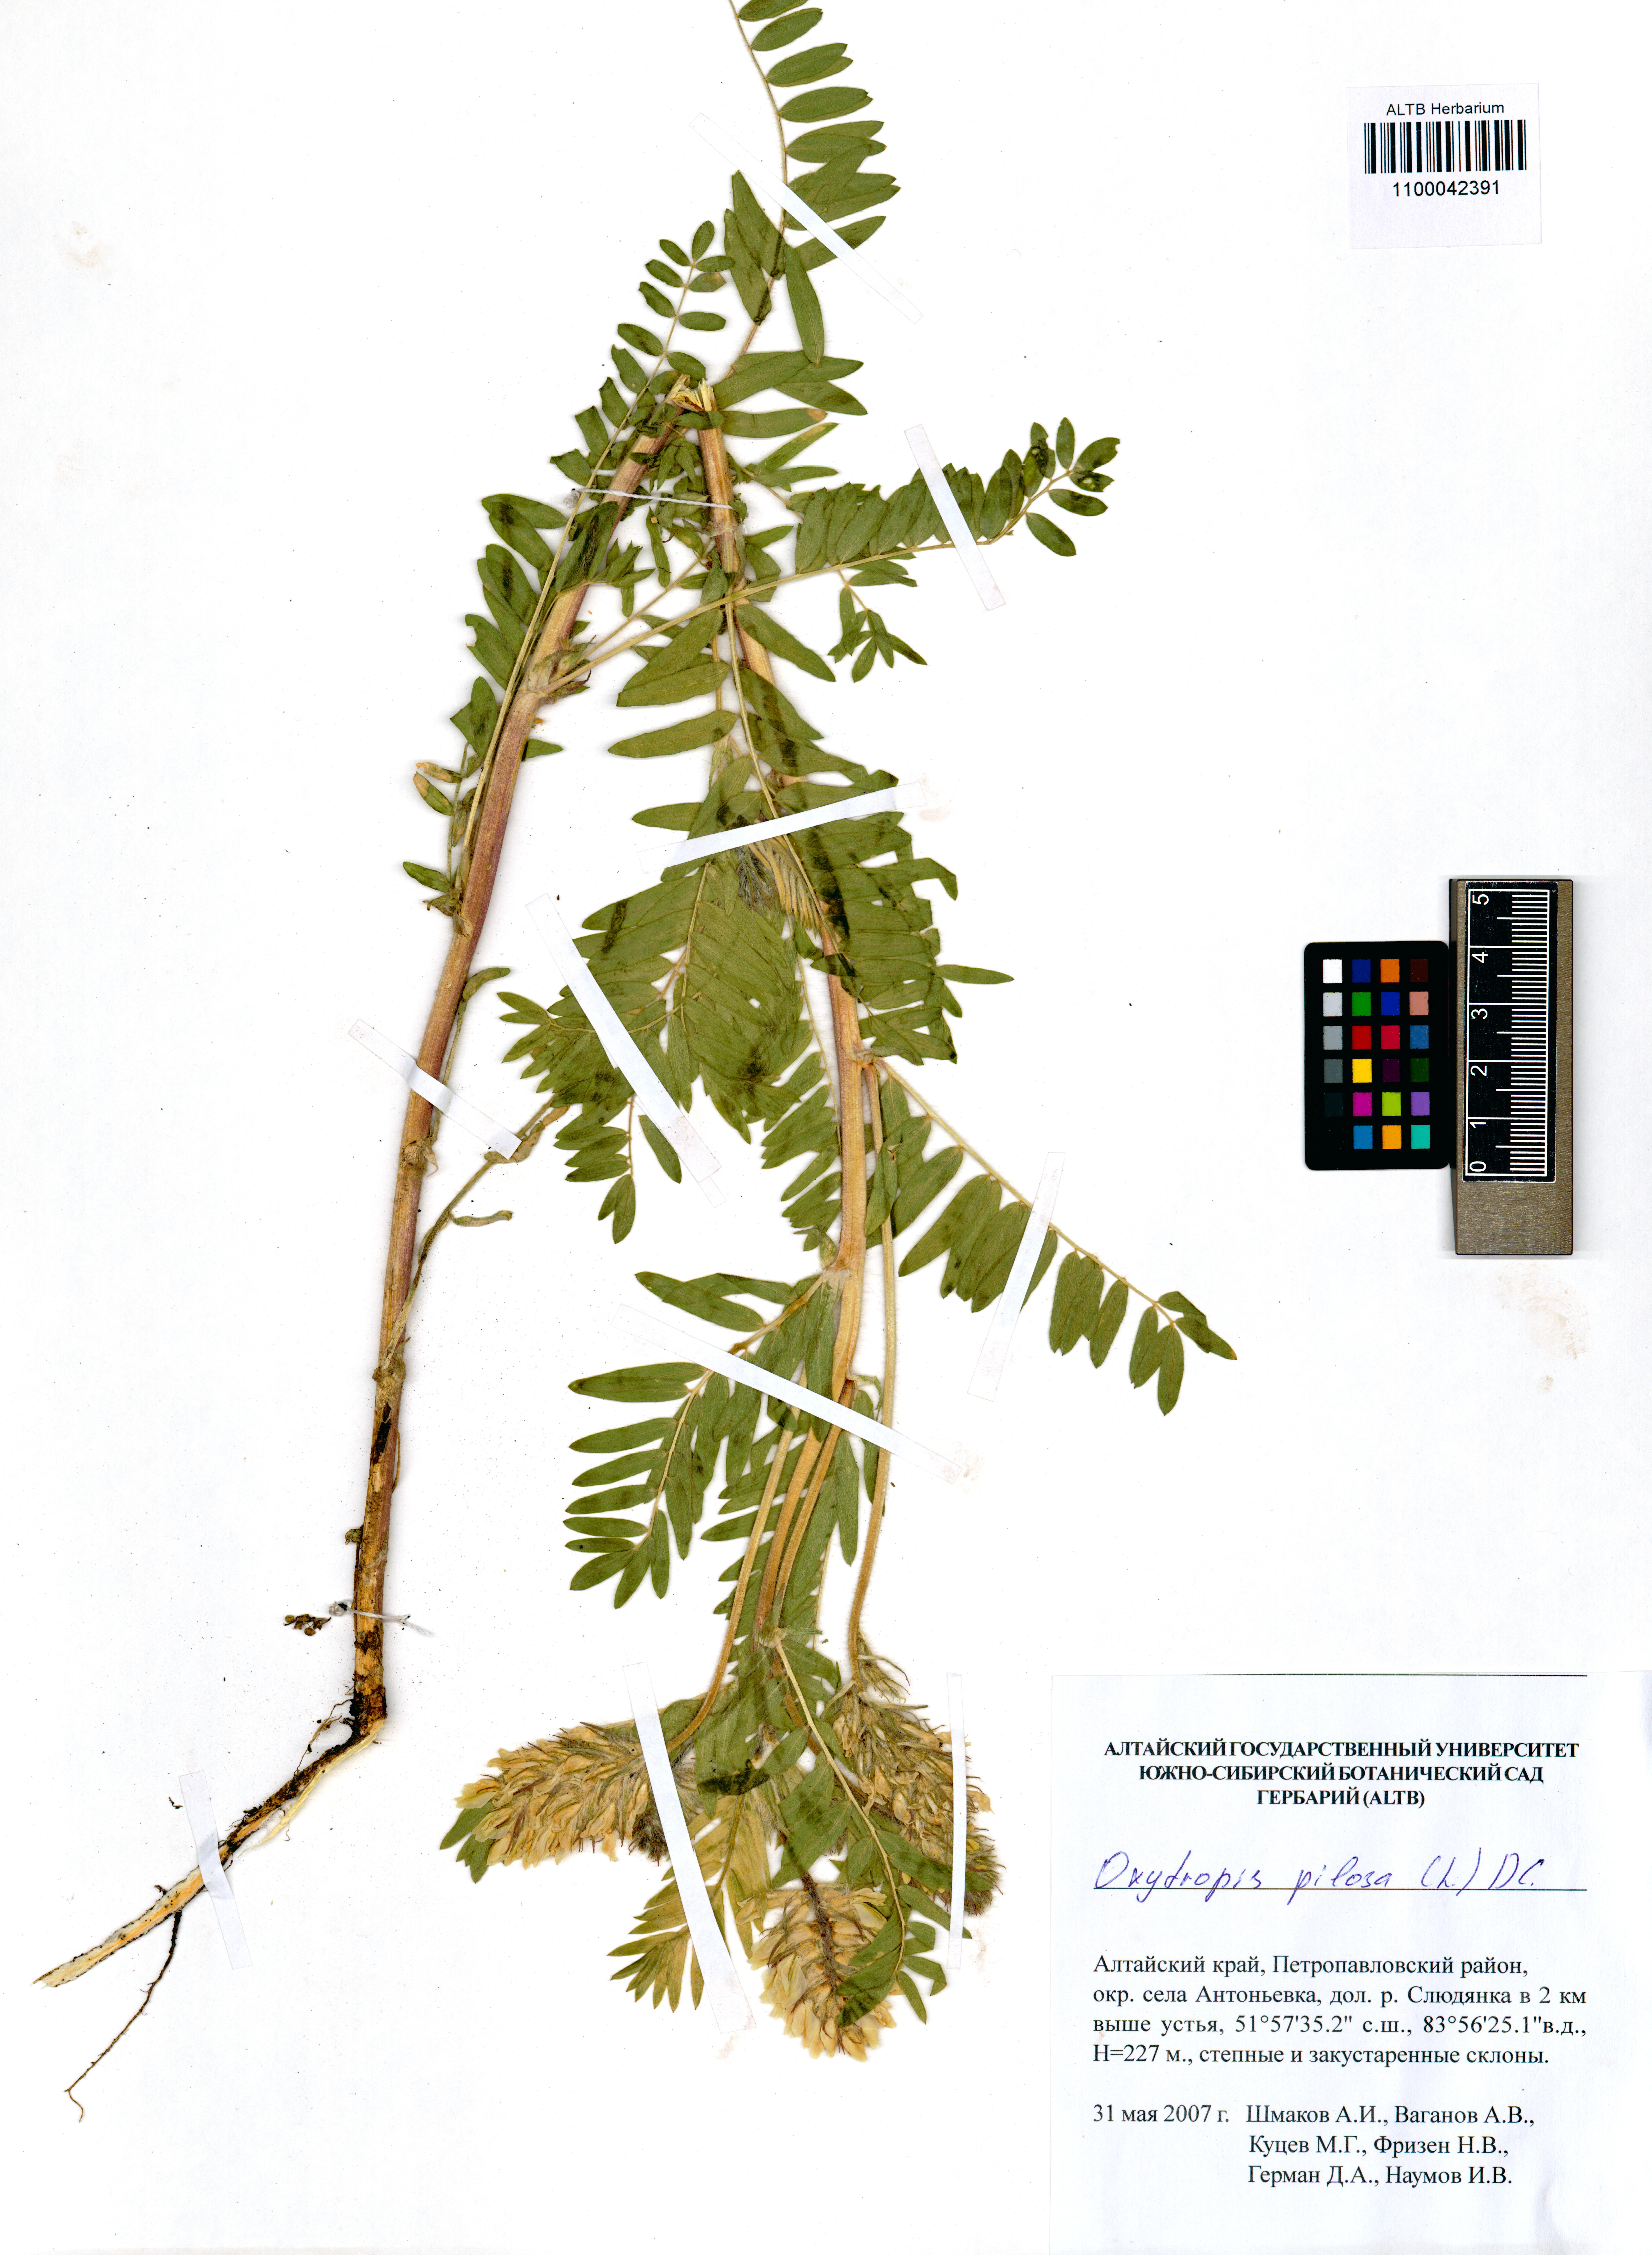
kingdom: Plantae
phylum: Tracheophyta
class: Magnoliopsida
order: Fabales
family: Fabaceae
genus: Oxytropis
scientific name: Oxytropis pilosa
